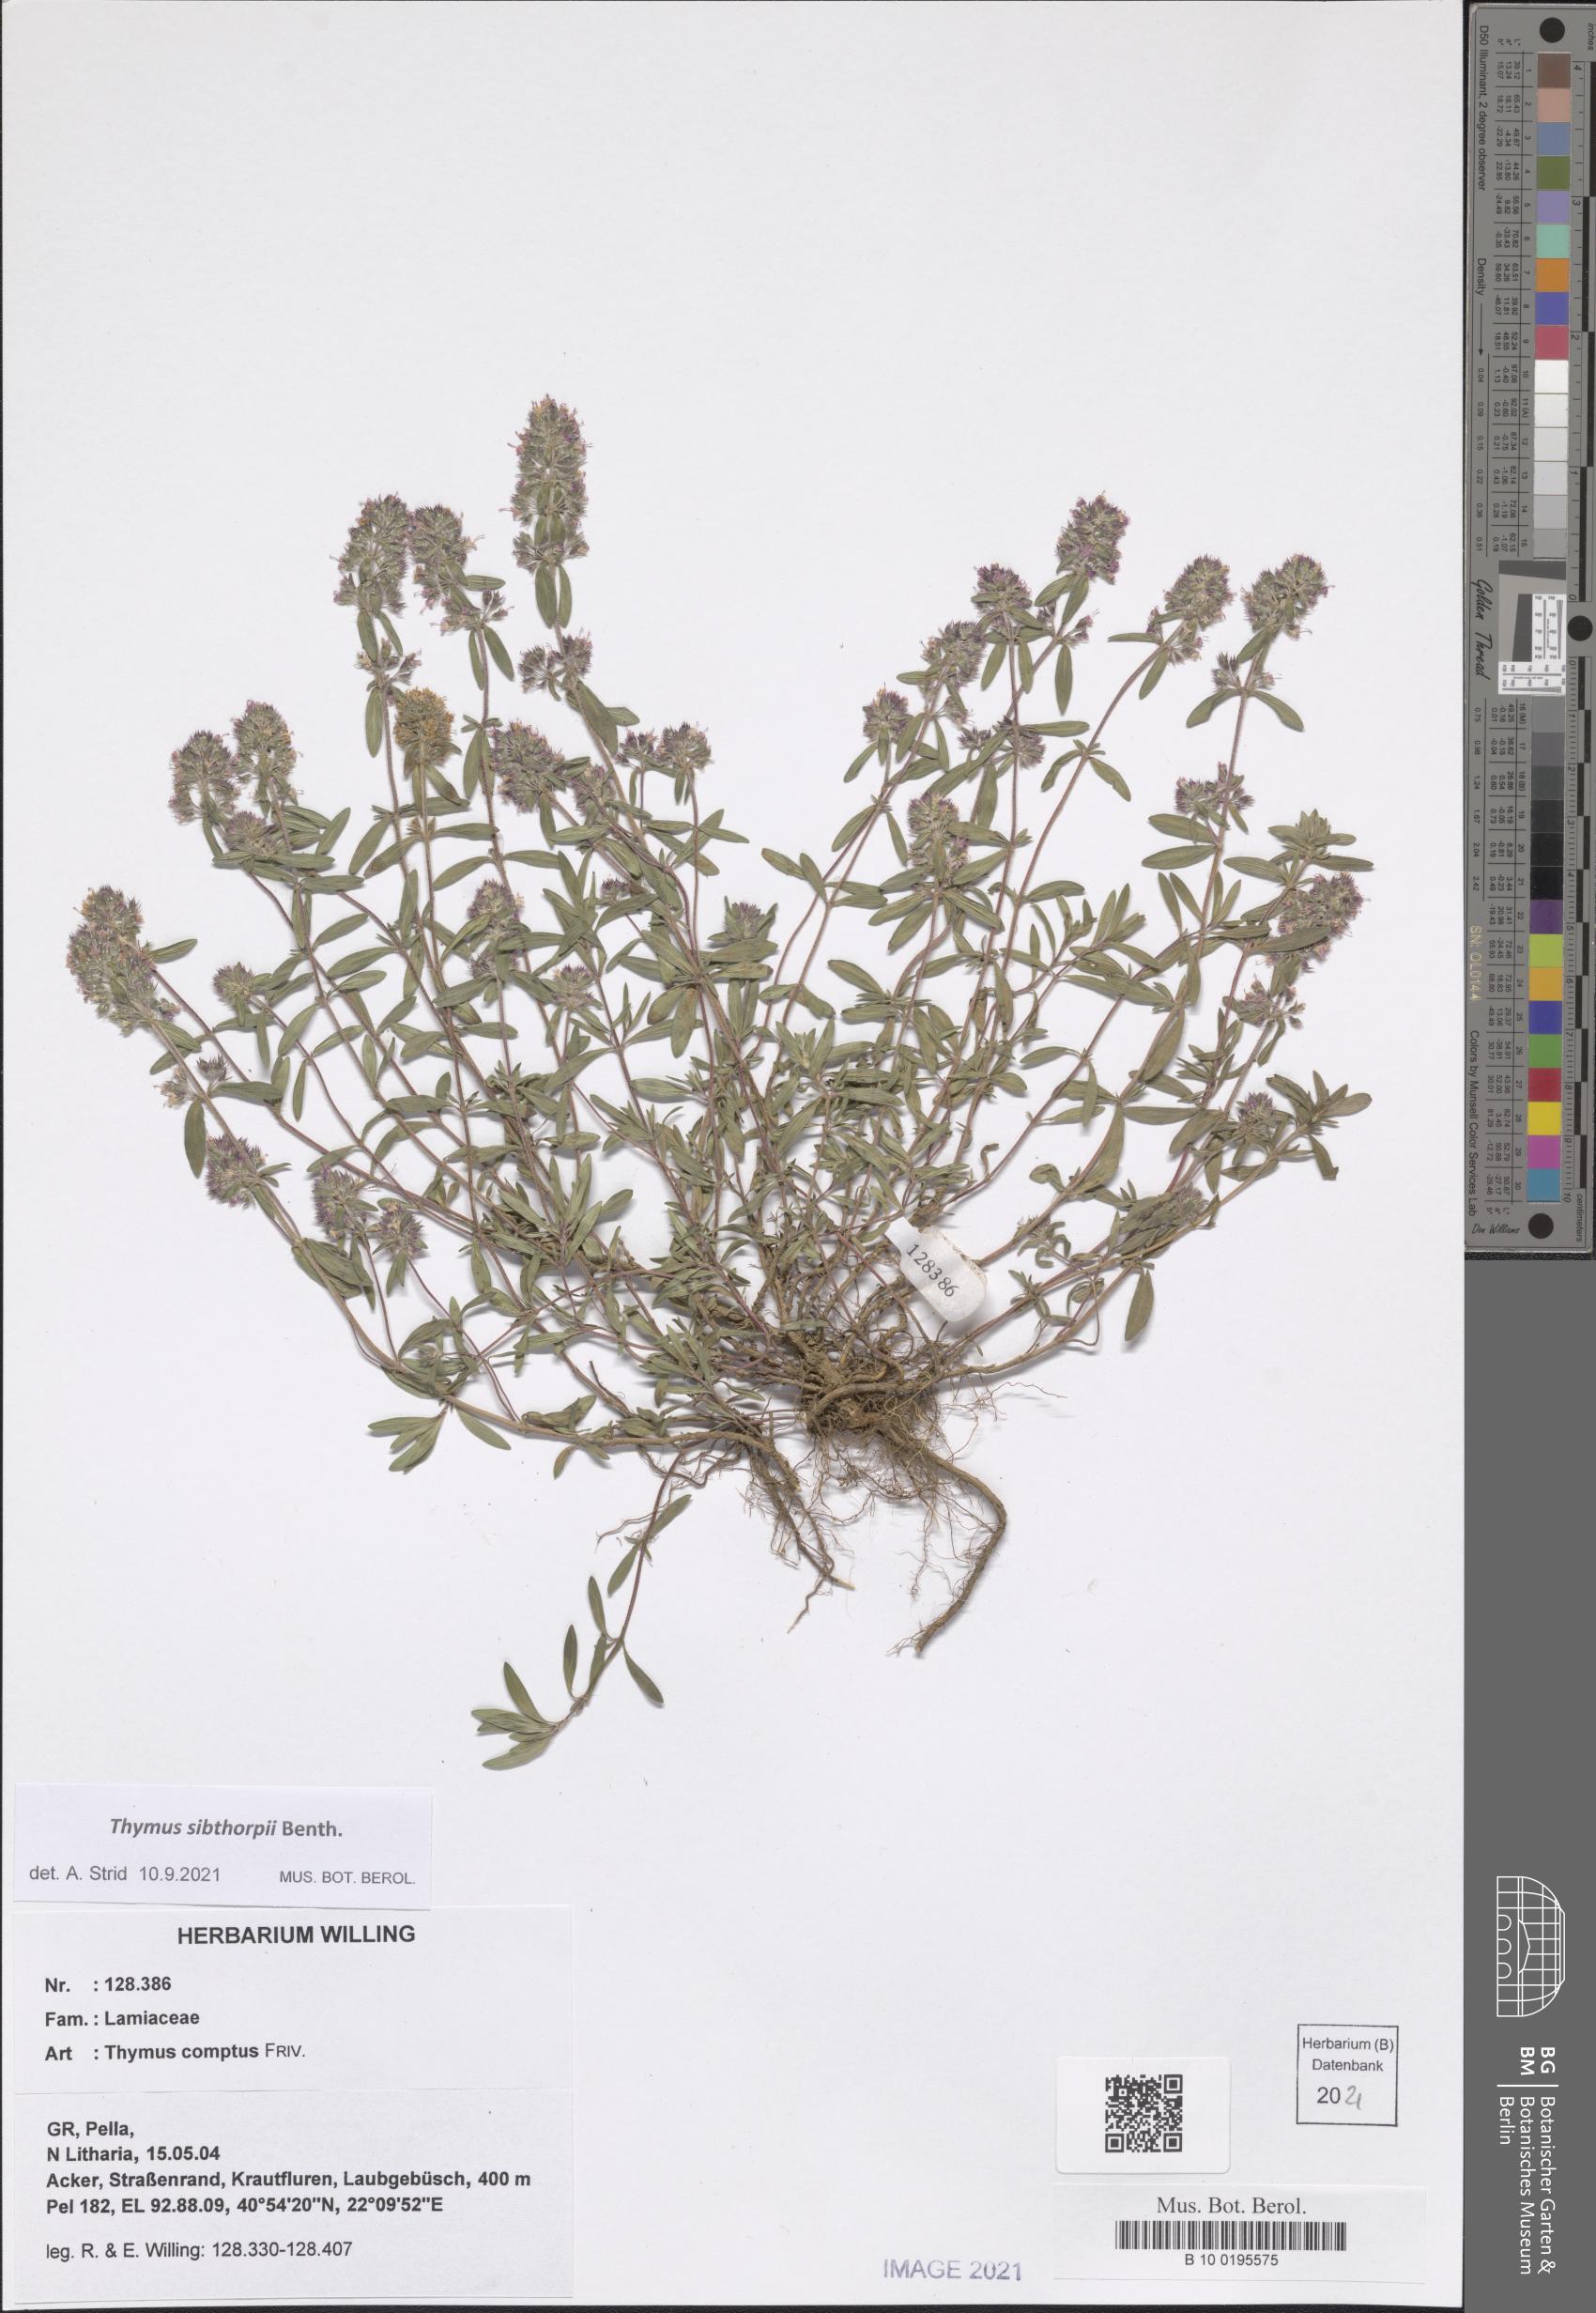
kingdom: Plantae
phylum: Tracheophyta
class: Magnoliopsida
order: Lamiales
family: Lamiaceae
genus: Thymus
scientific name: Thymus sibthorpii
